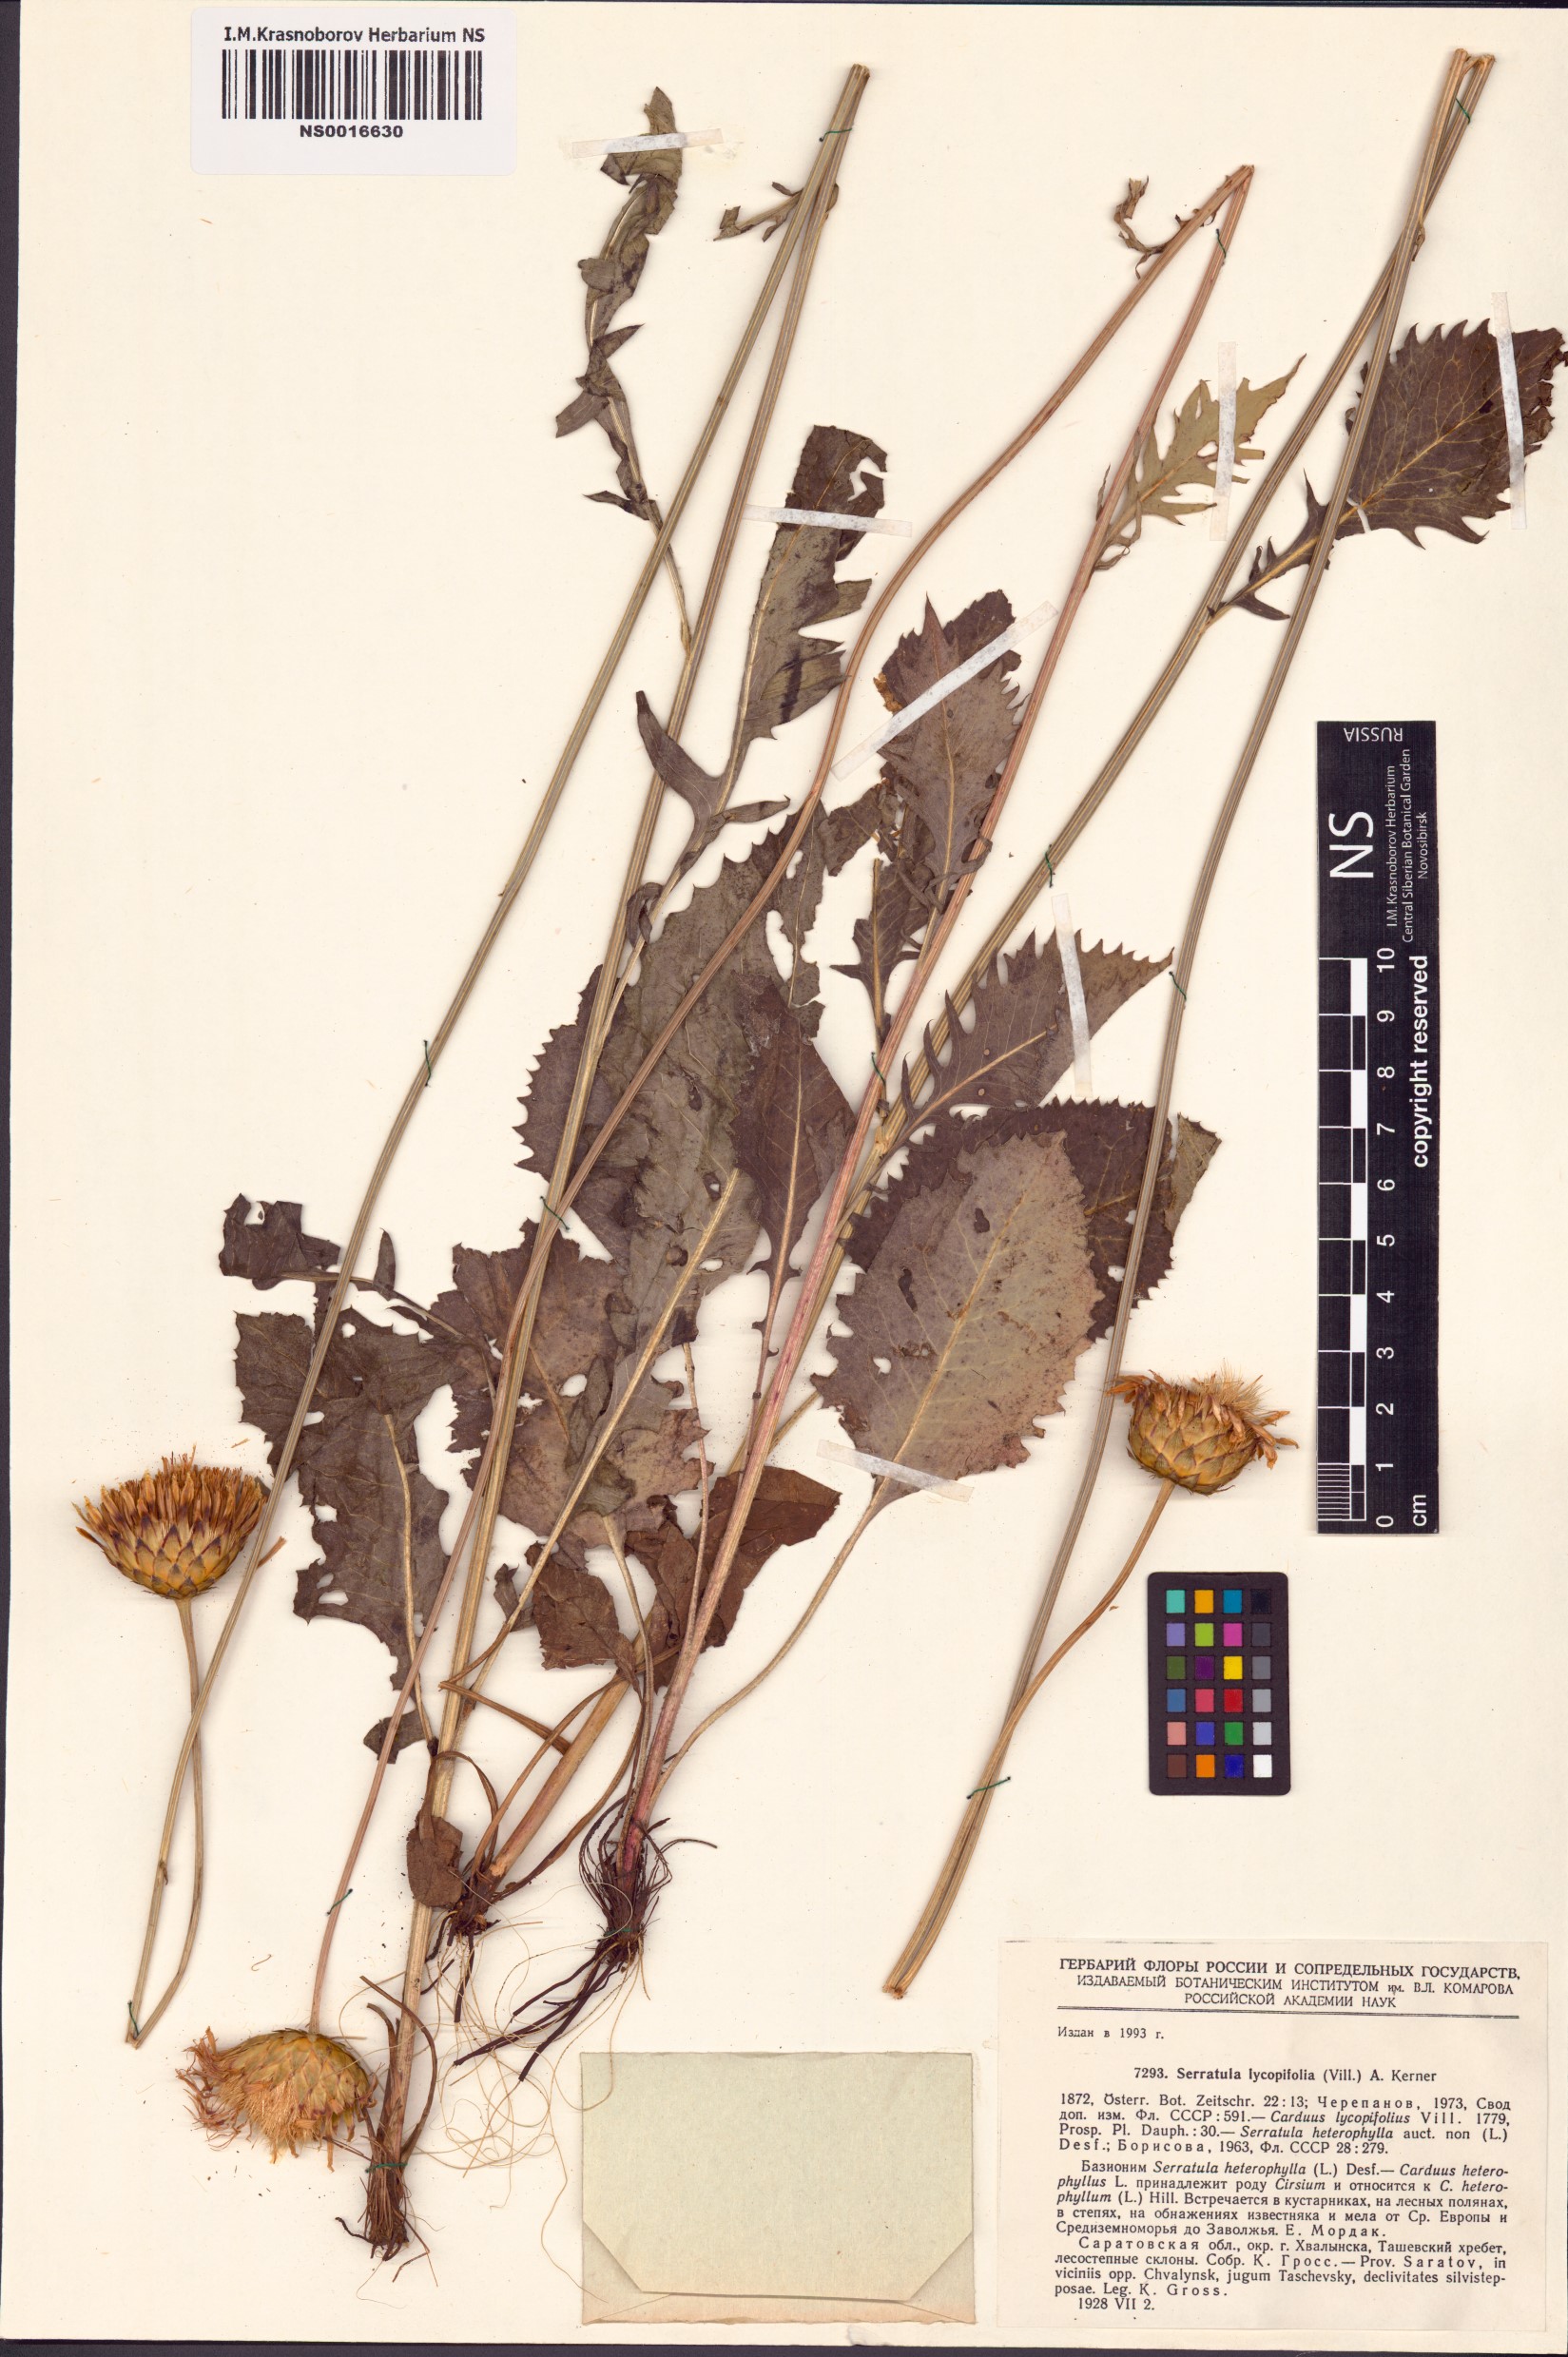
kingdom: Plantae
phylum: Tracheophyta
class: Magnoliopsida
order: Asterales
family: Asteraceae
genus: Klasea
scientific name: Klasea lycopifolia
